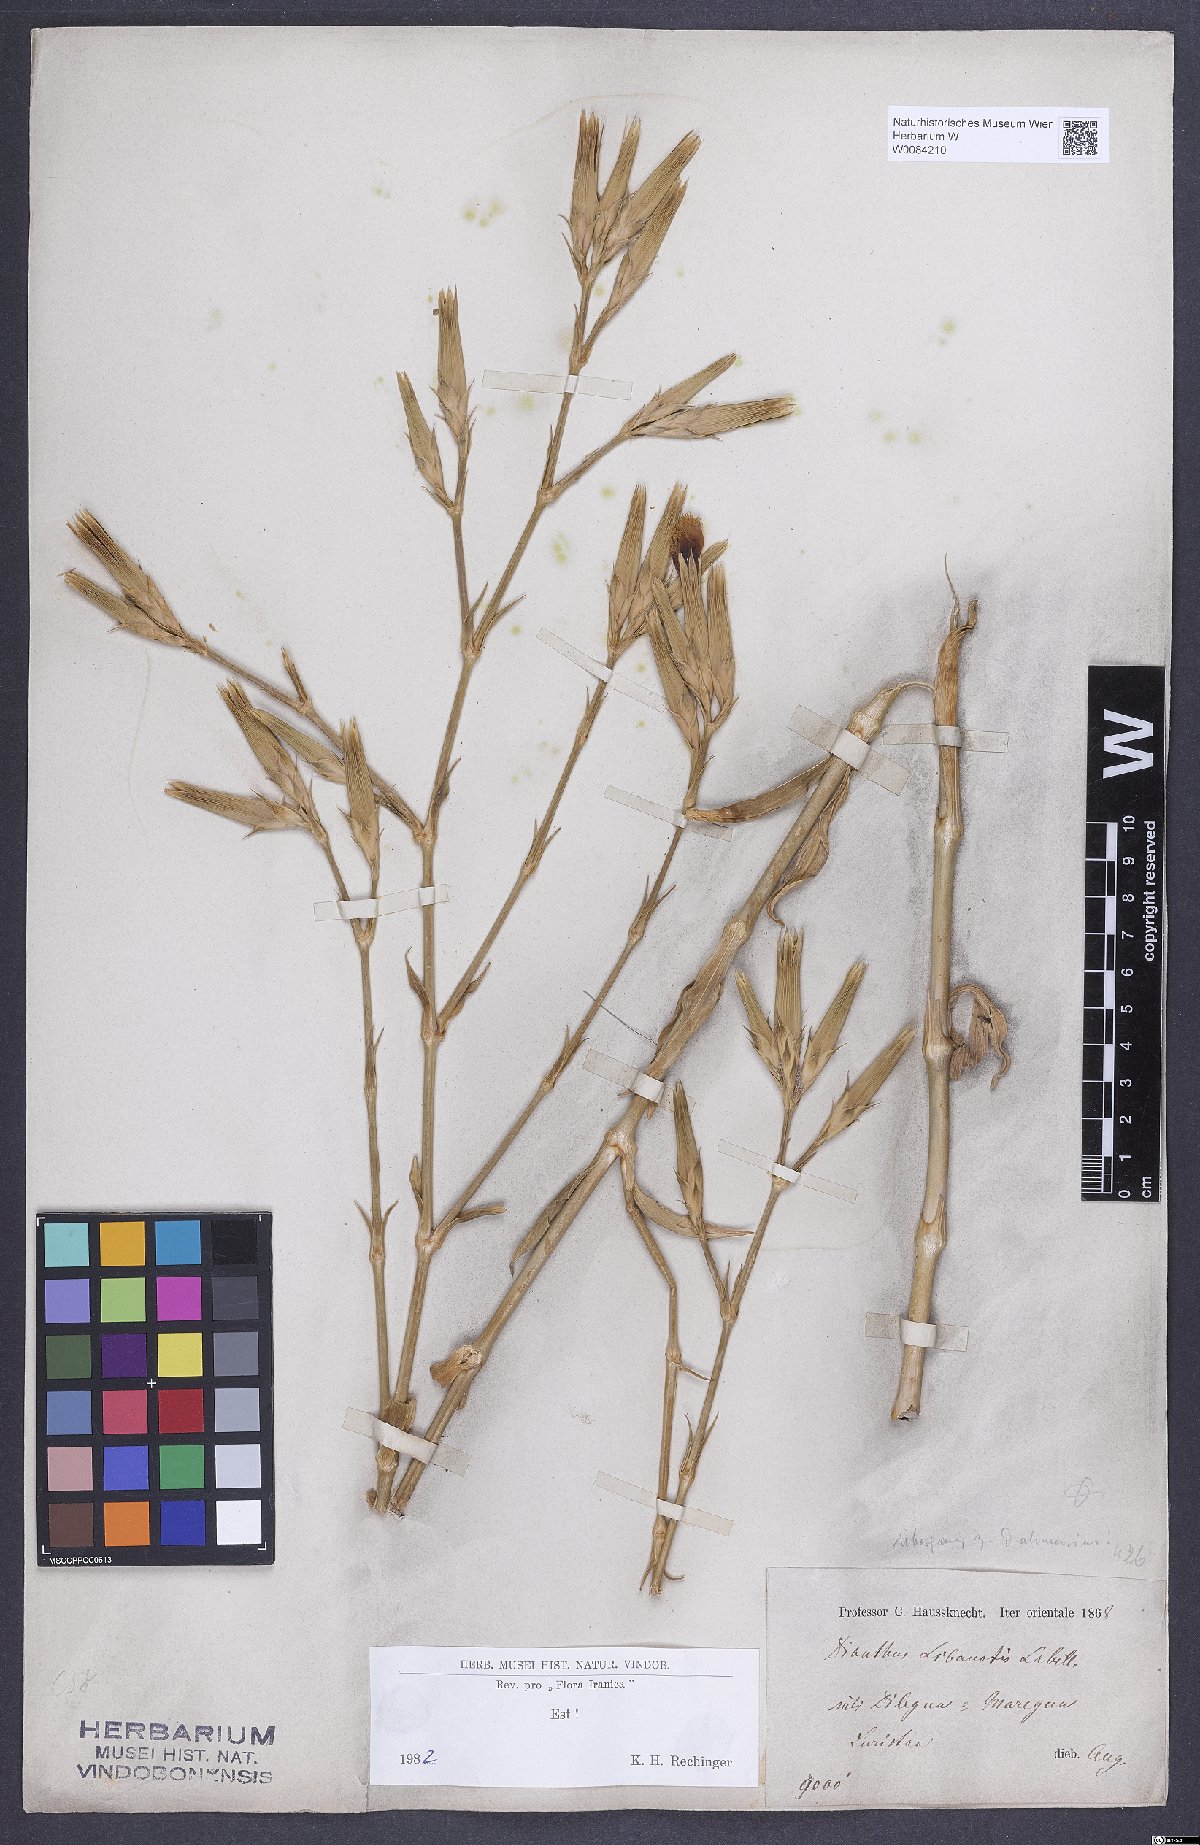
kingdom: Plantae
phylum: Tracheophyta
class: Magnoliopsida
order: Caryophyllales
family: Caryophyllaceae
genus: Dianthus
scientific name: Dianthus libanotis
